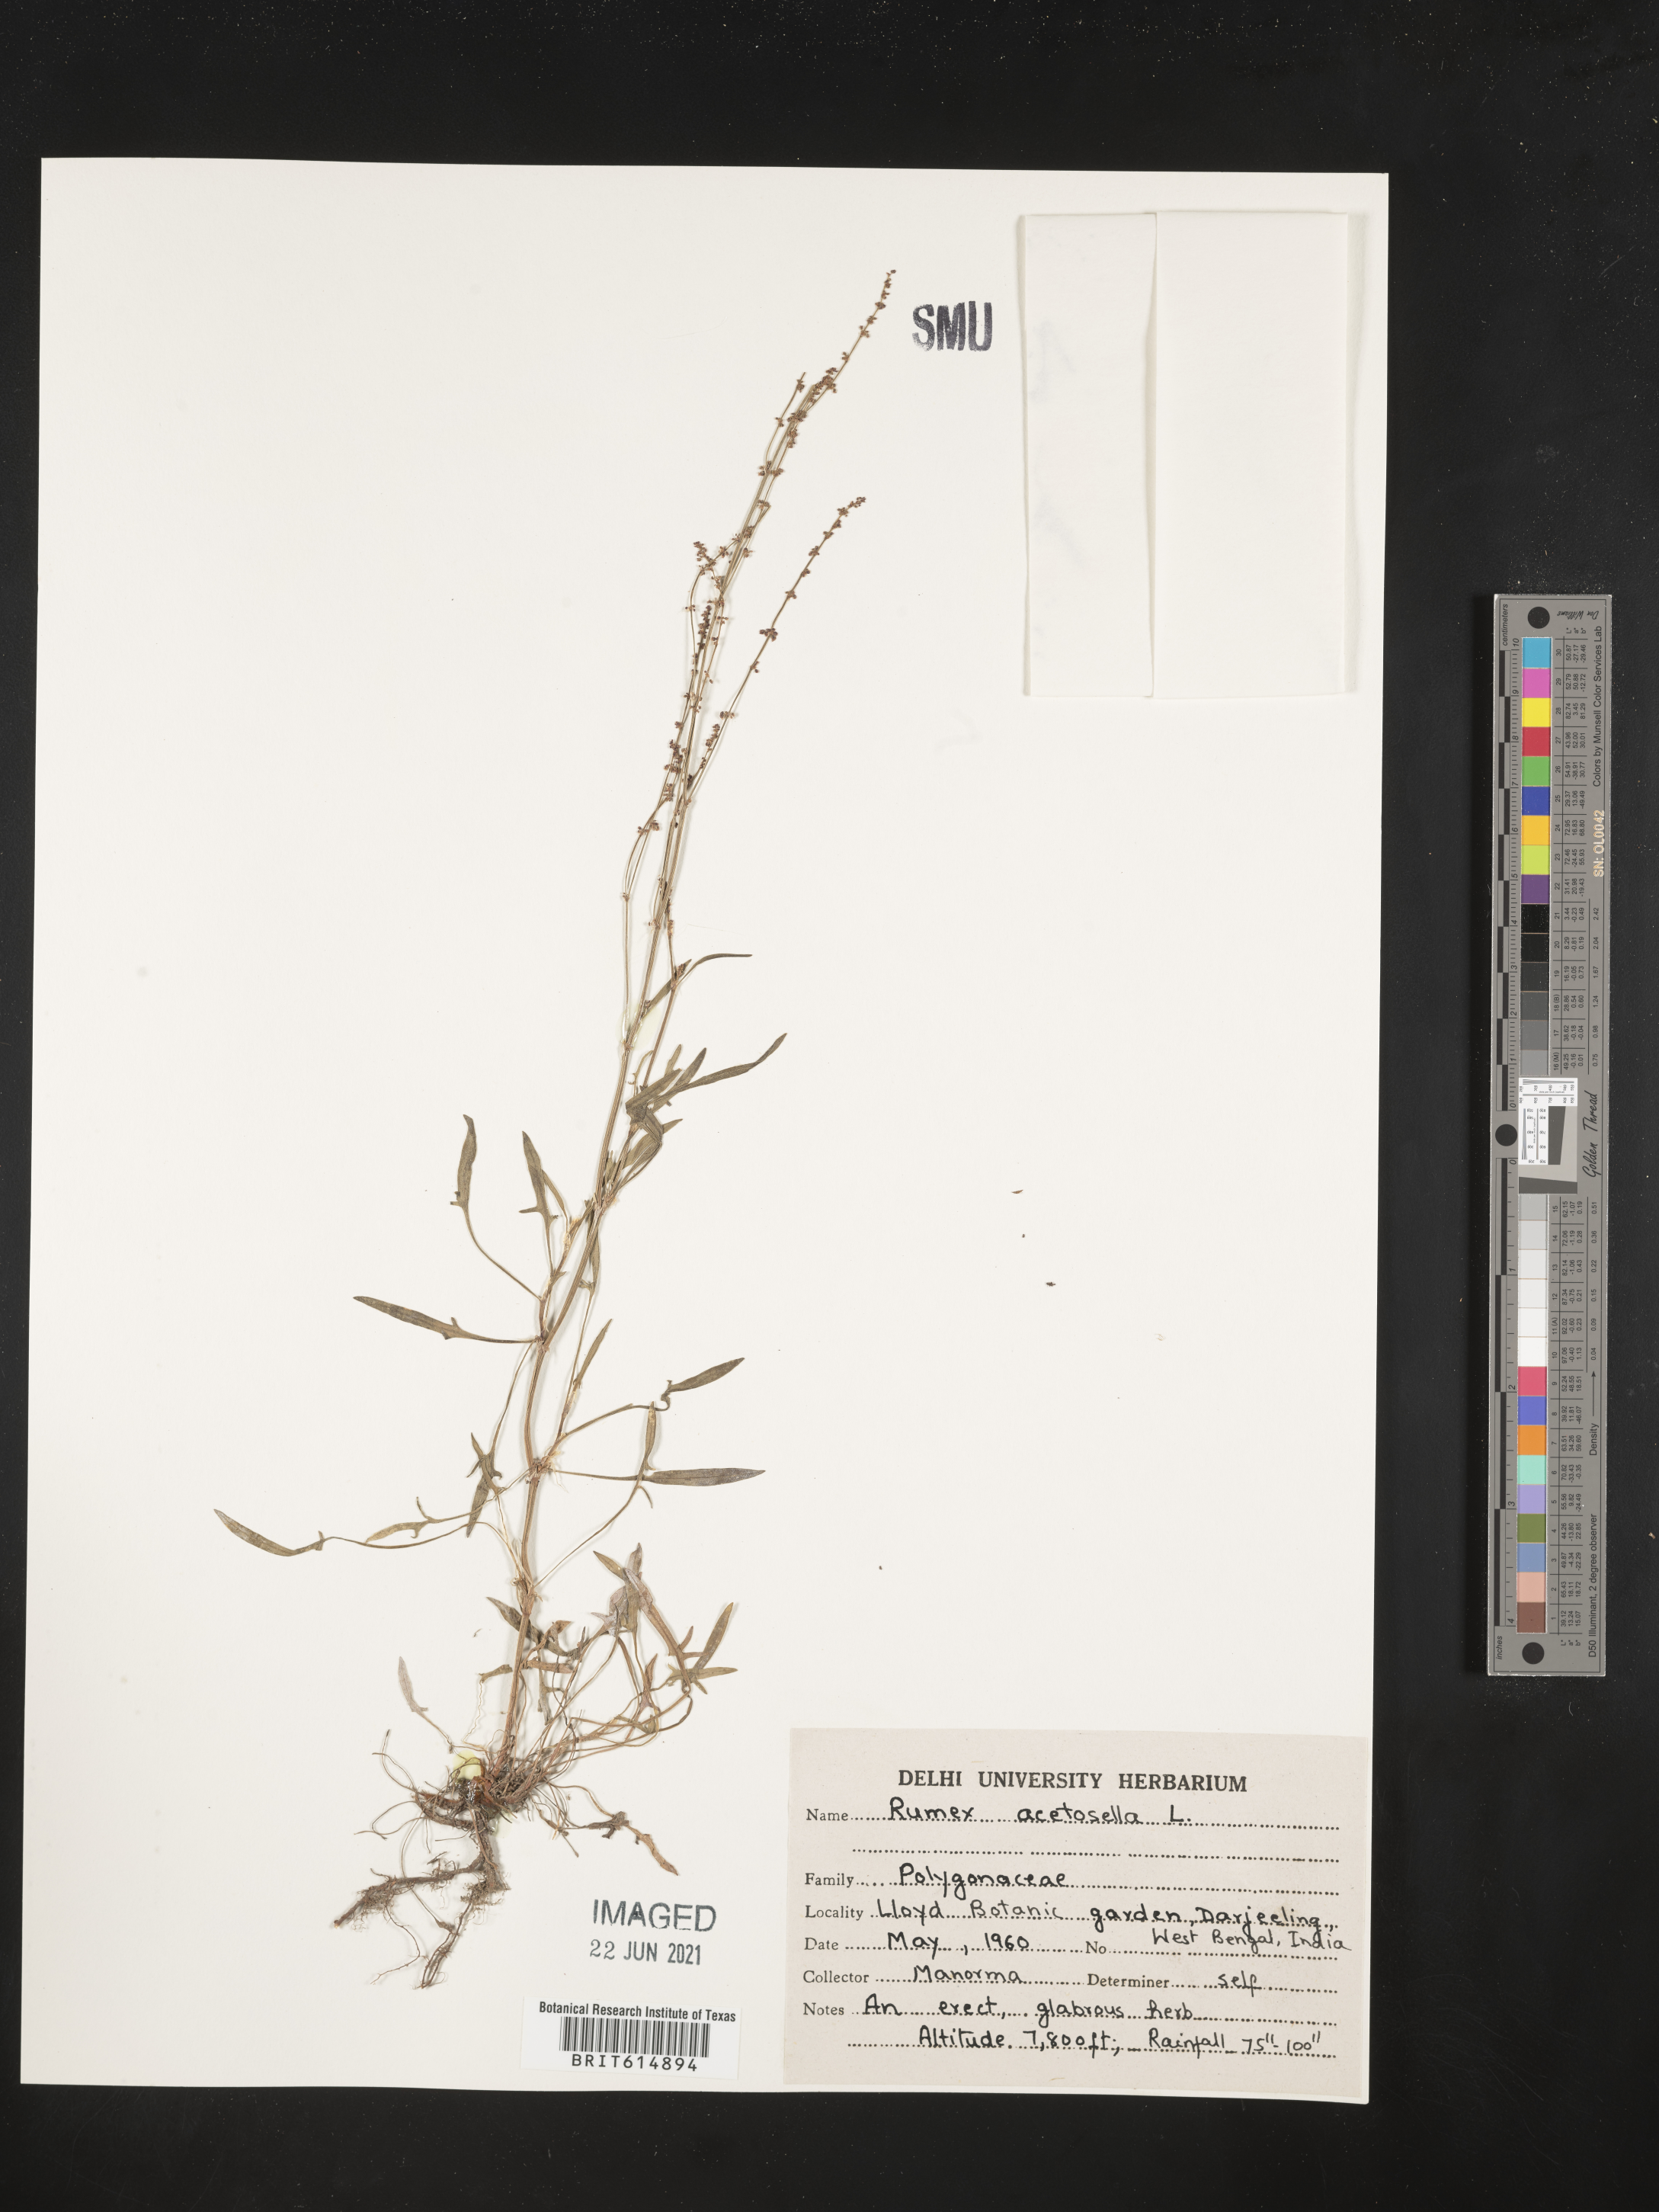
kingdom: Plantae
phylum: Tracheophyta
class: Magnoliopsida
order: Caryophyllales
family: Polygonaceae
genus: Rumex
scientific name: Rumex acetosella
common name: Common sheep sorrel
